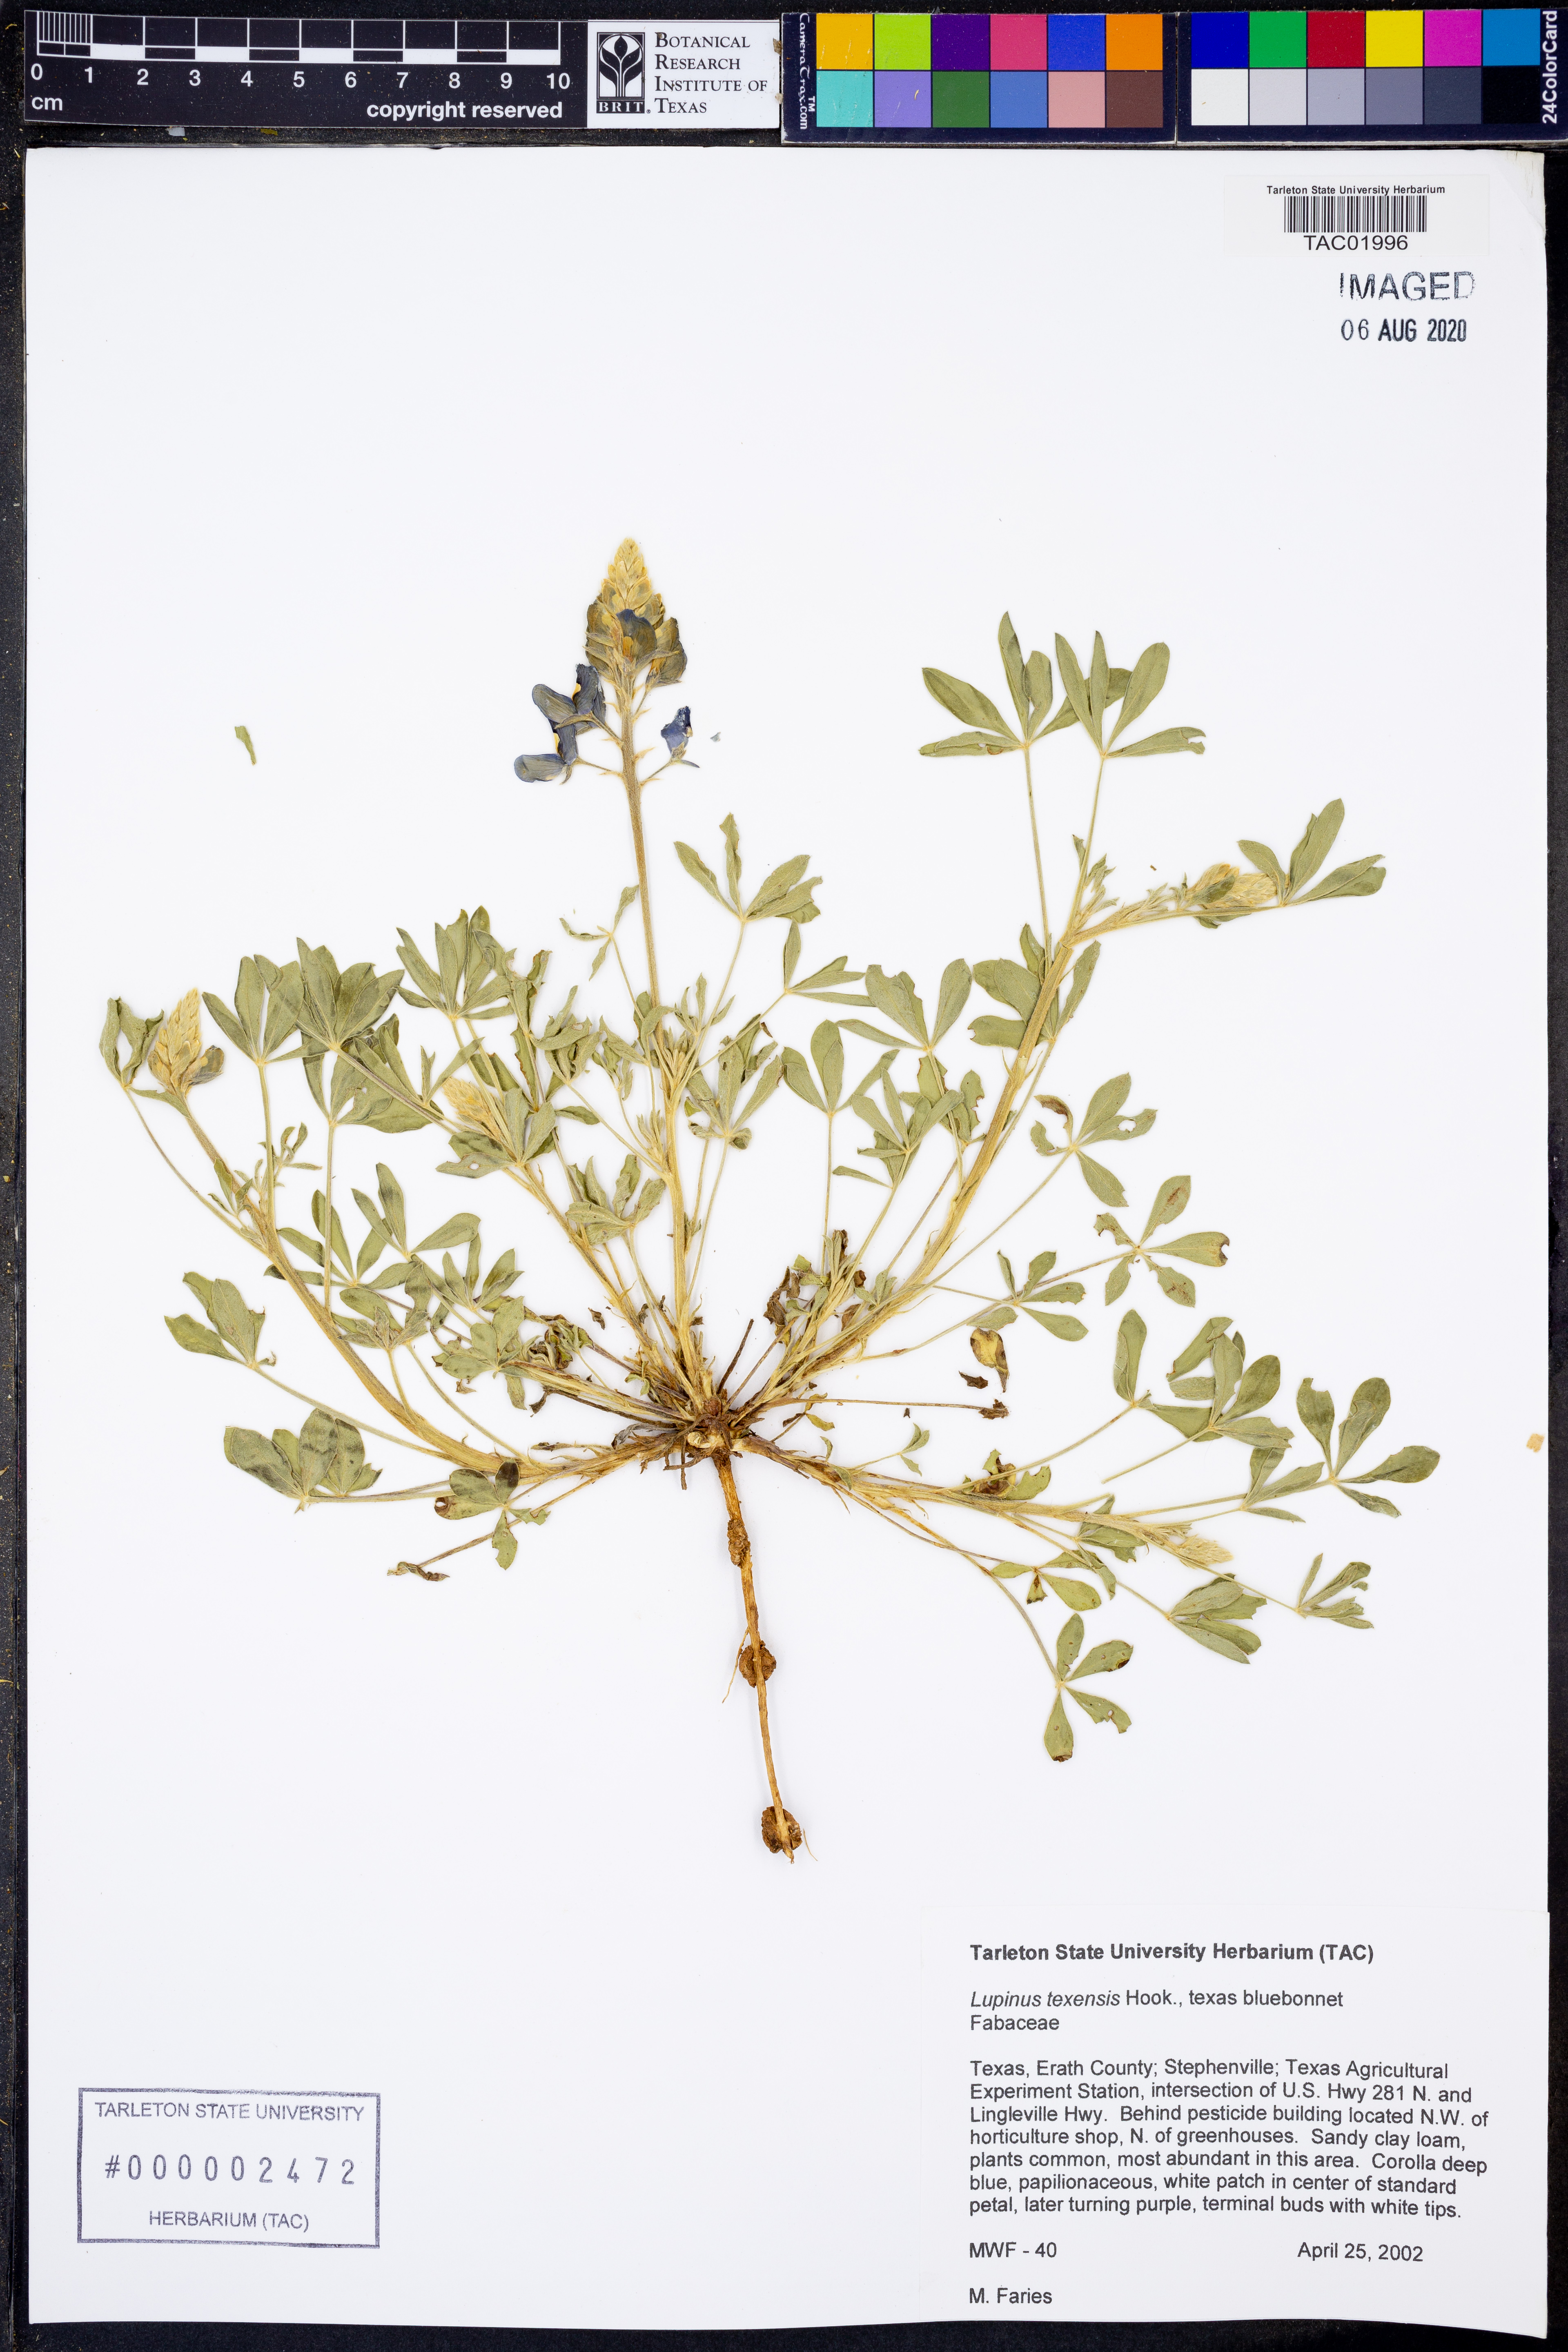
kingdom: Plantae
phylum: Tracheophyta
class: Magnoliopsida
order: Fabales
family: Fabaceae
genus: Lupinus
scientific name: Lupinus texensis
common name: Texas bluebonnet
